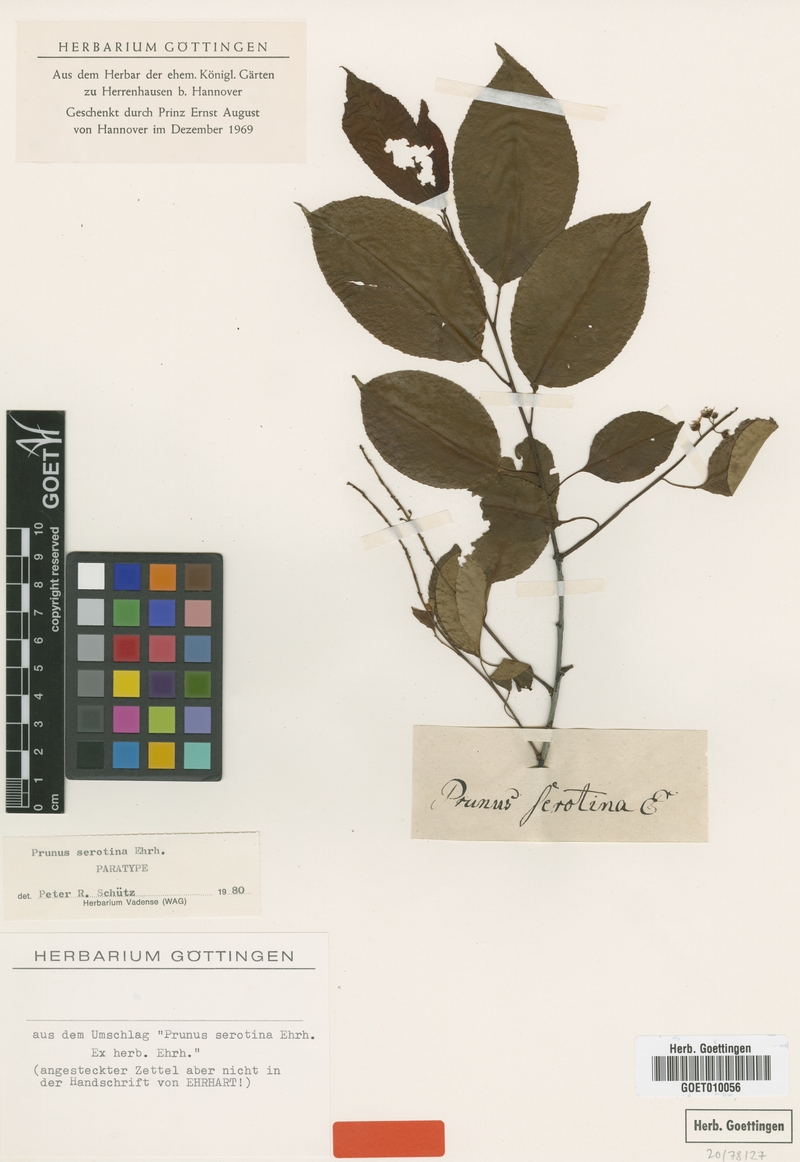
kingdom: Plantae
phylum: Tracheophyta
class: Magnoliopsida
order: Rosales
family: Rosaceae
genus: Prunus
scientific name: Prunus serotina
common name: Black cherry
